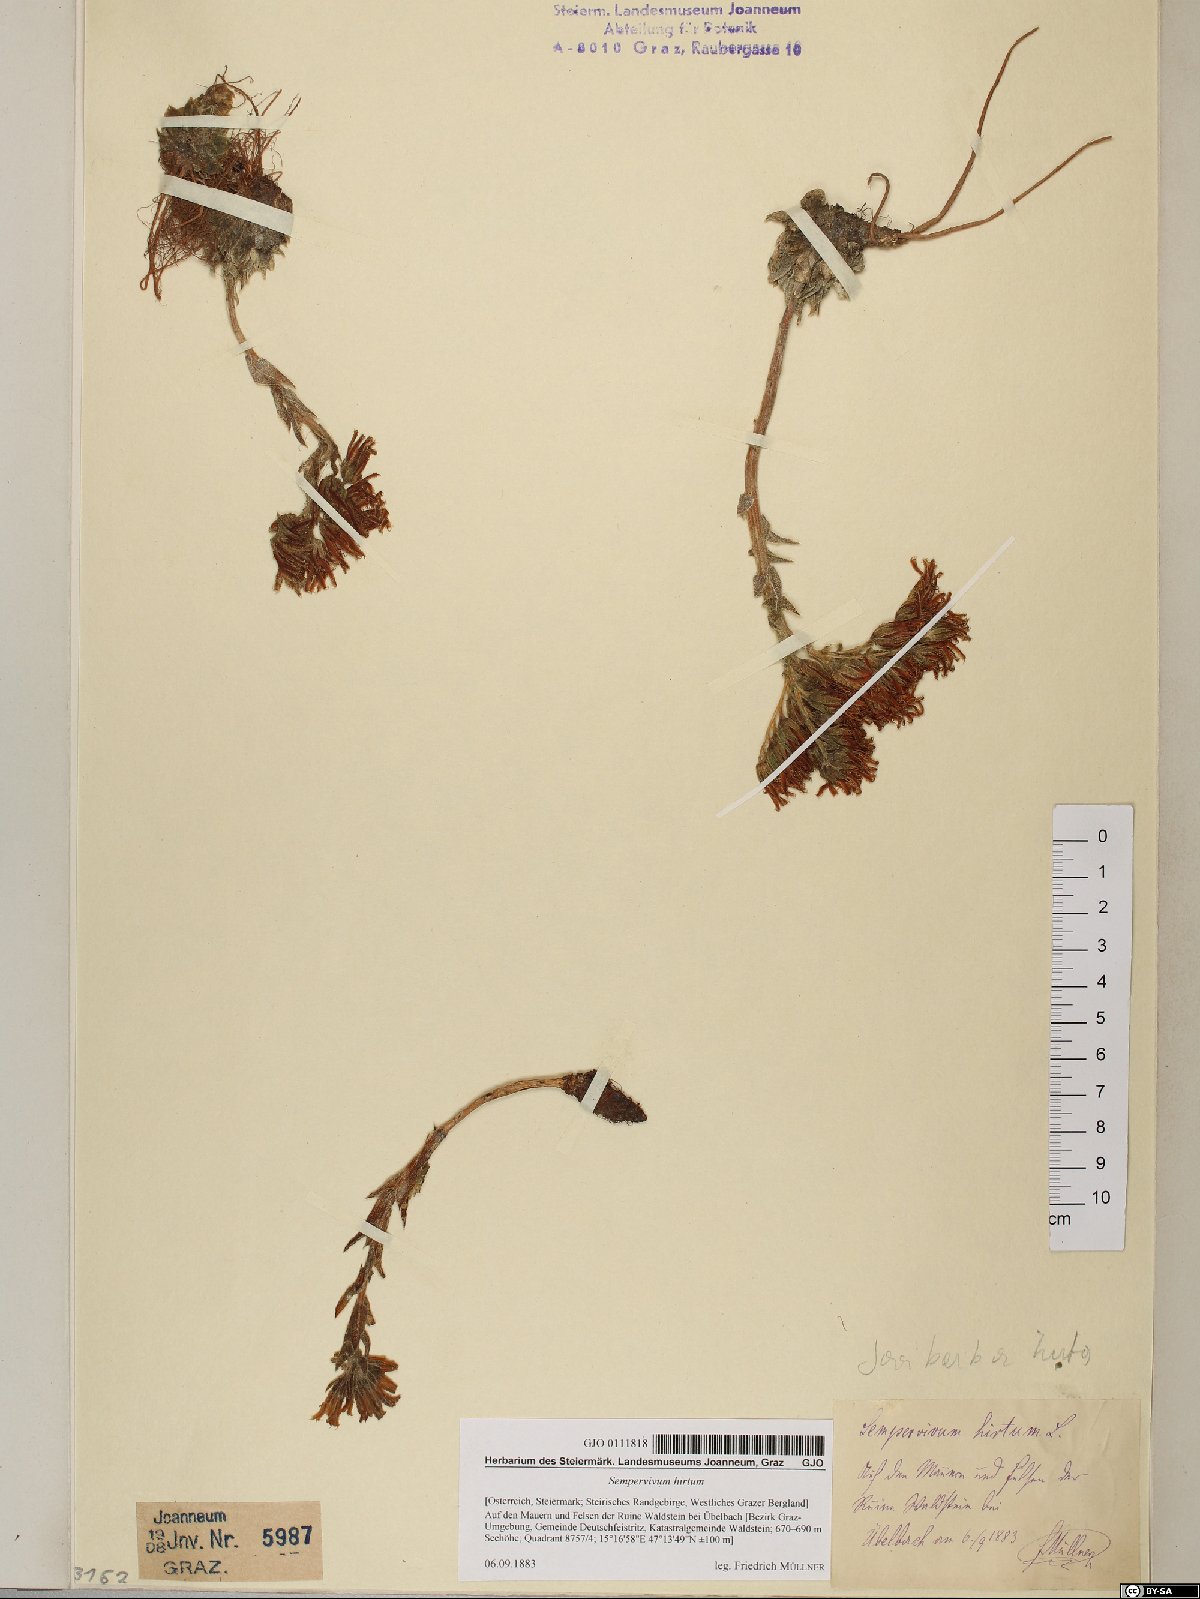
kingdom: Plantae
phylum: Tracheophyta
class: Magnoliopsida
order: Saxifragales
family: Crassulaceae
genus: Sempervivum
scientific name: Sempervivum globiferum
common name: Rolling hen-and-chicks
